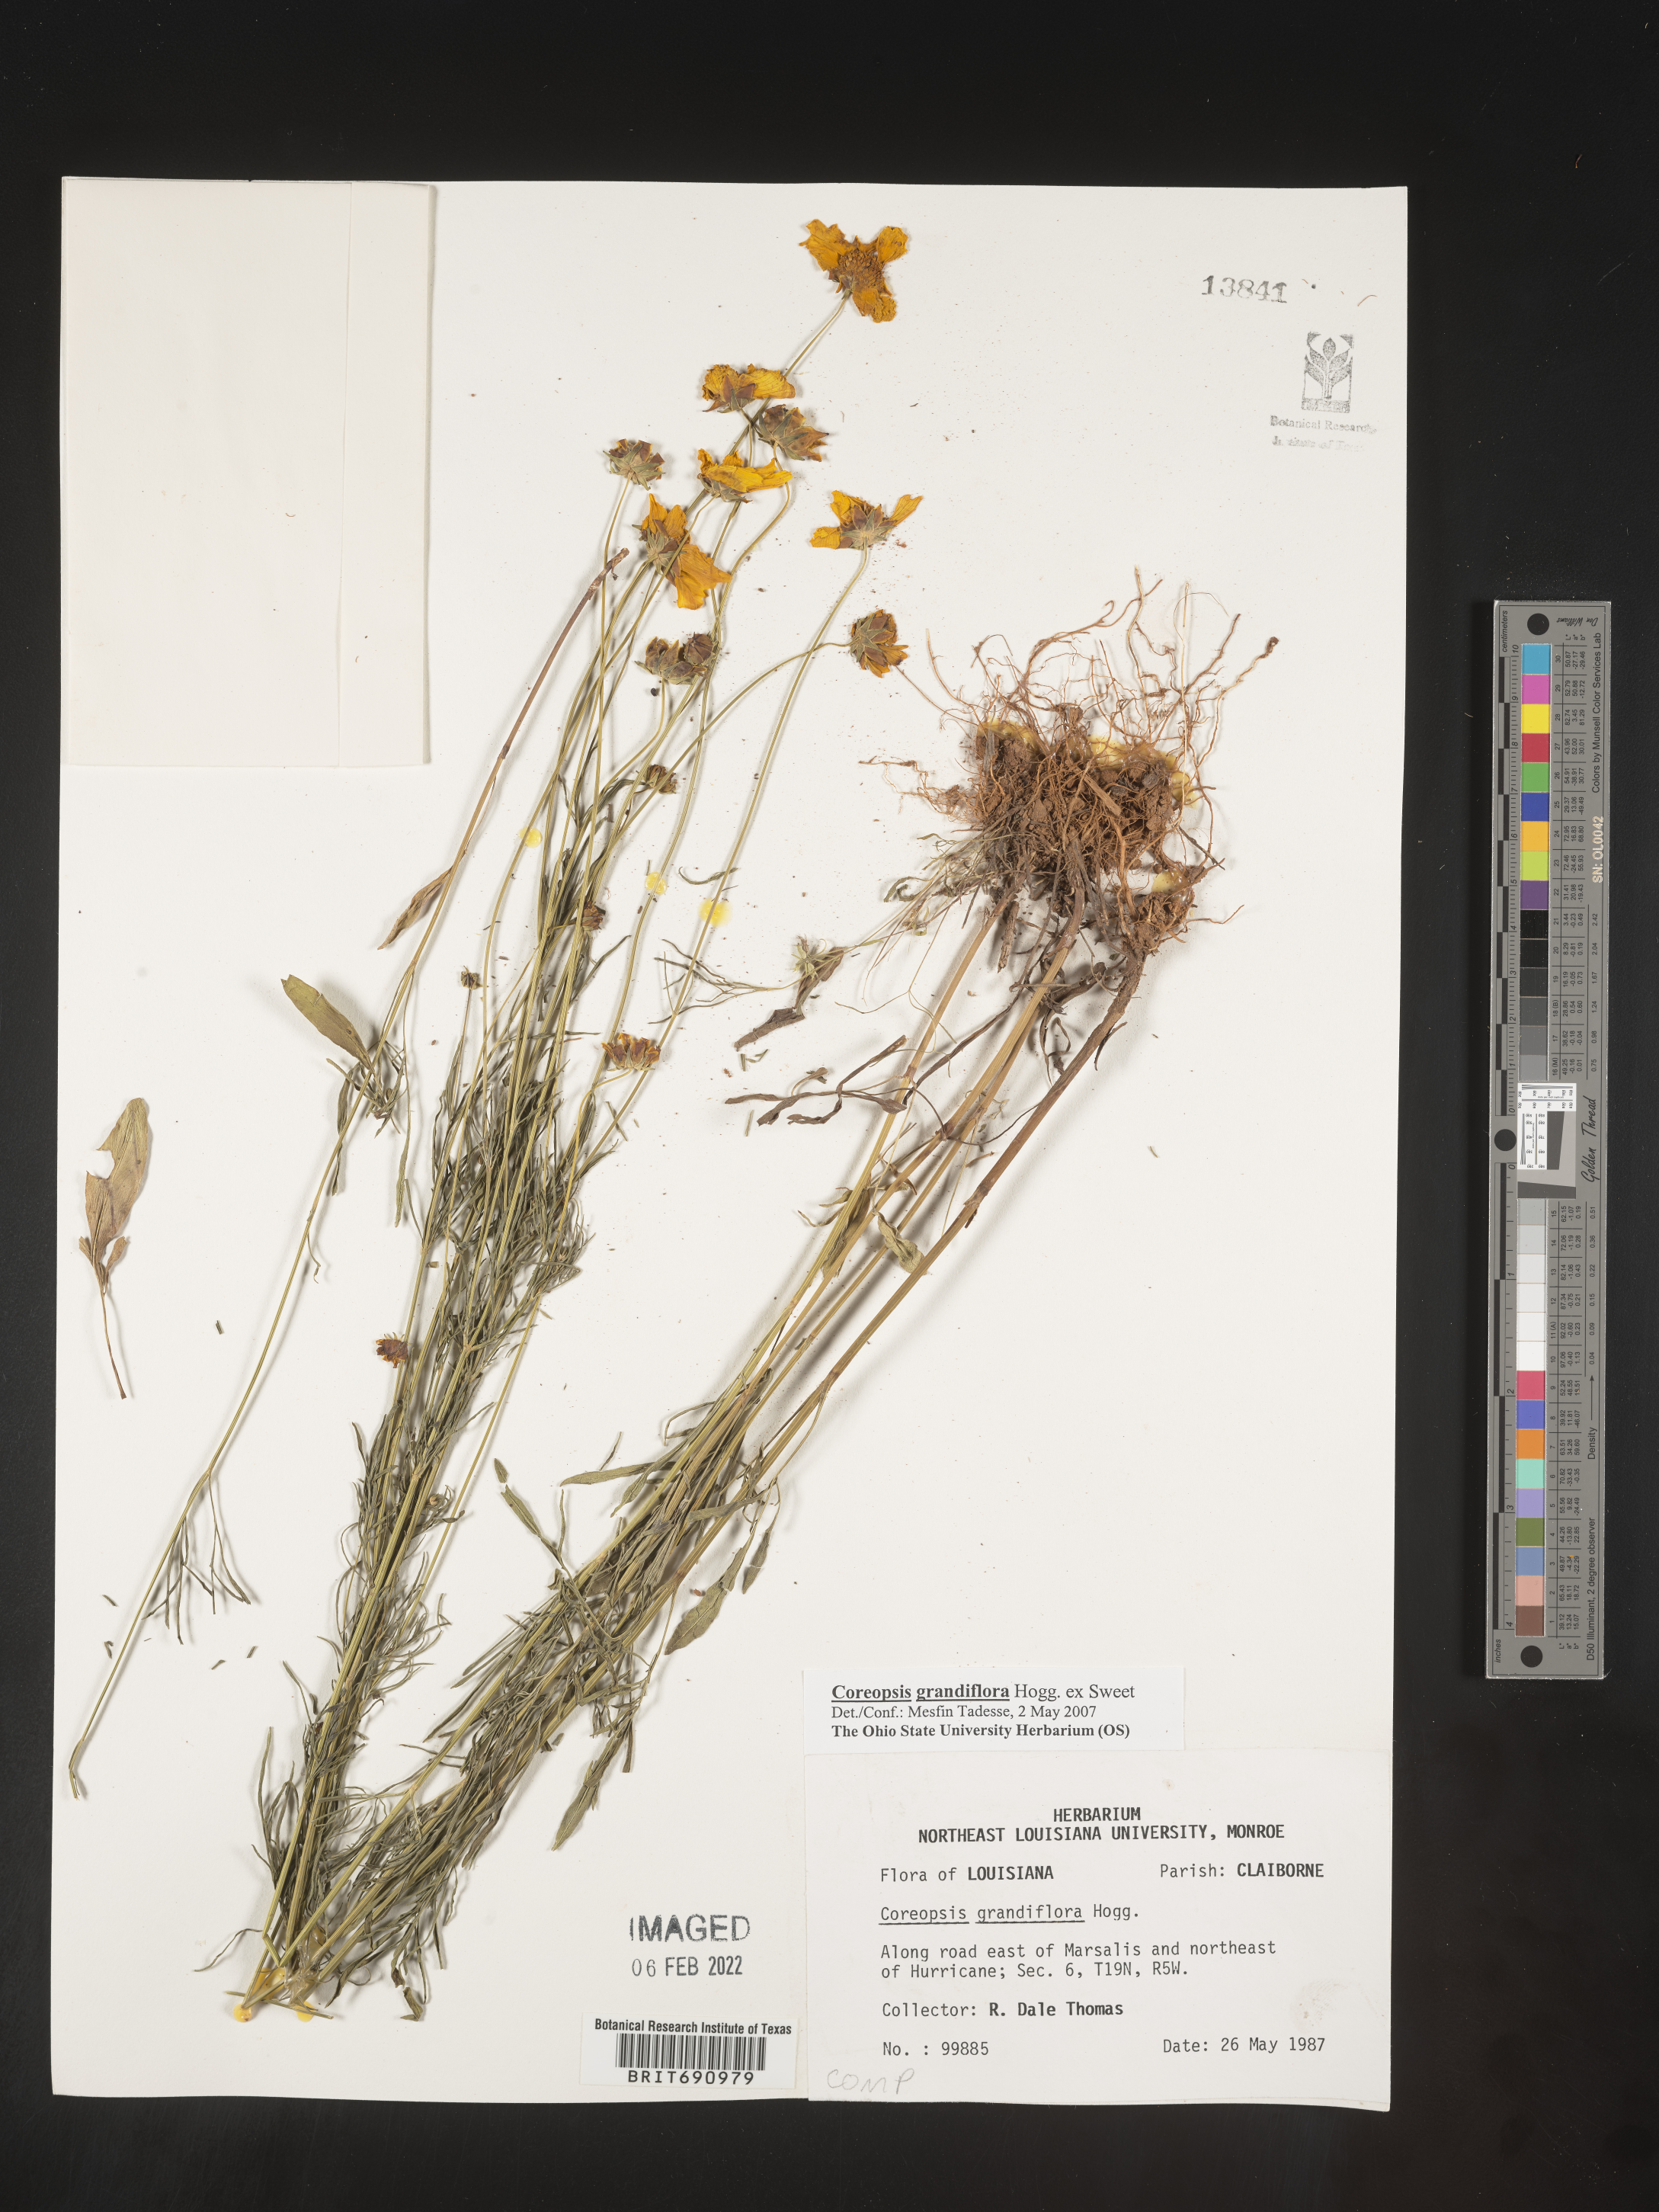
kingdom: Plantae
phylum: Tracheophyta
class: Magnoliopsida
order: Asterales
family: Asteraceae
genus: Coreopsis
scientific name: Coreopsis grandiflora
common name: Large-flowered tickseed
